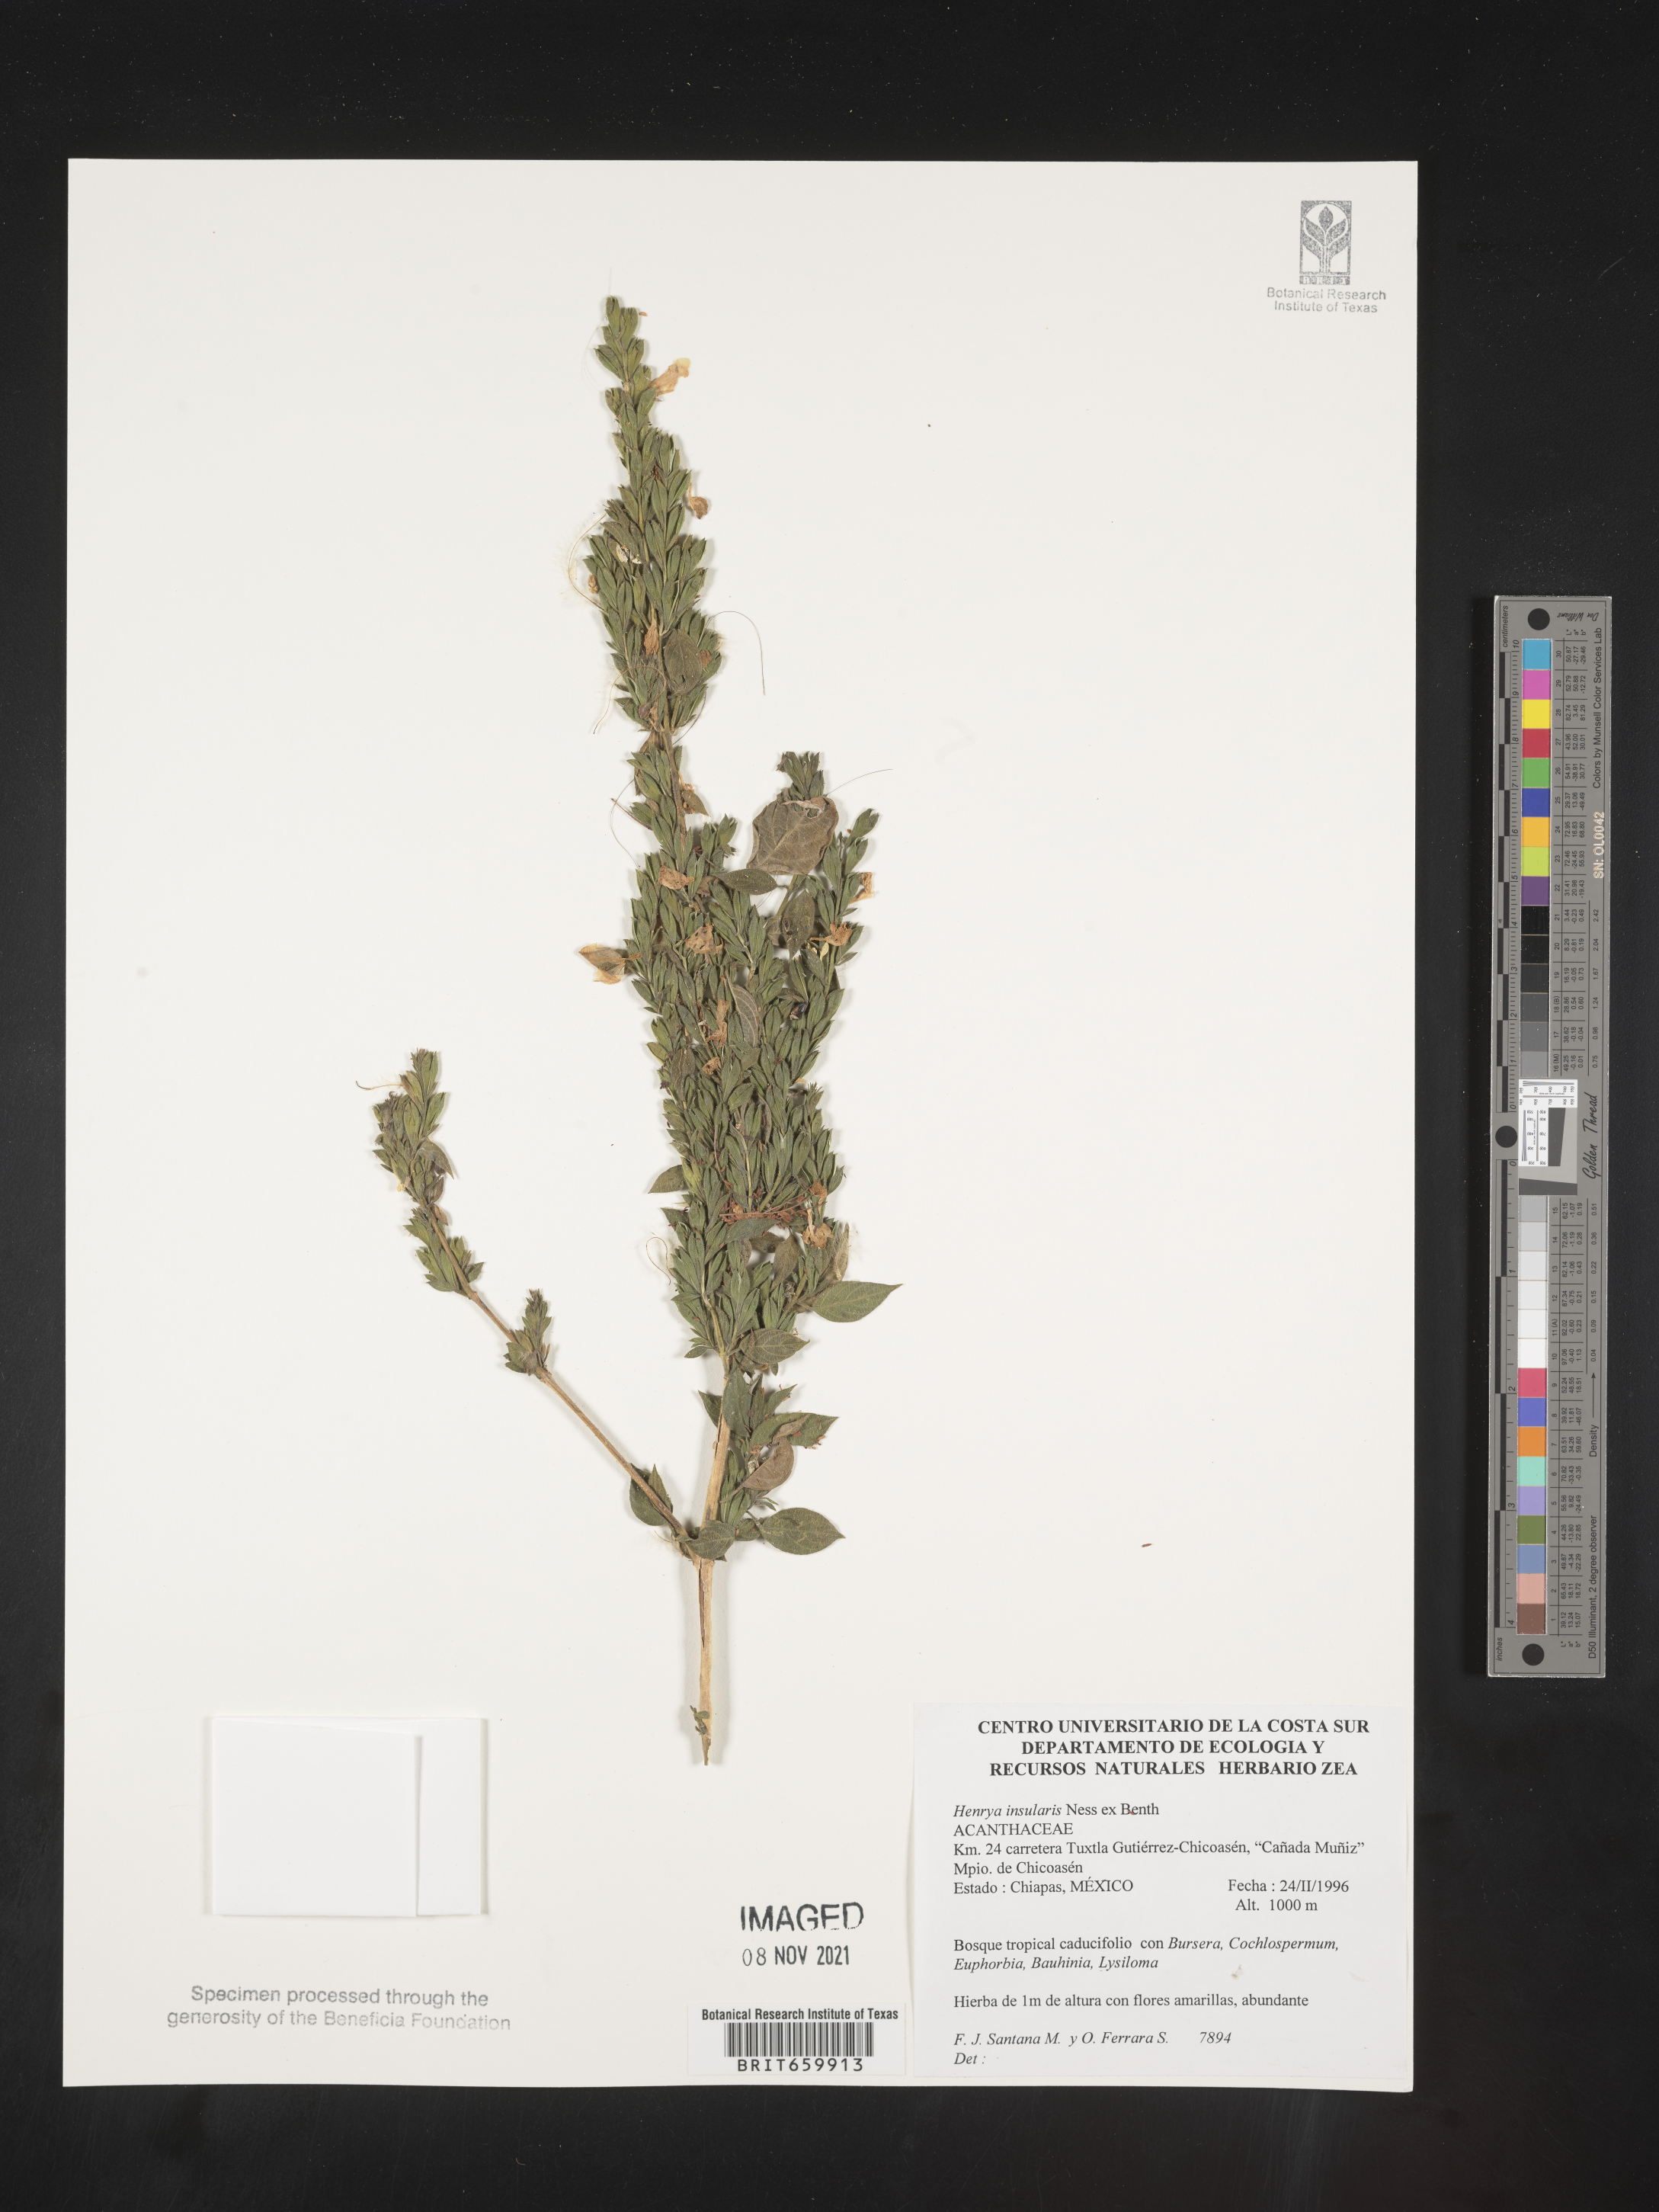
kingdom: Plantae
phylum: Tracheophyta
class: Magnoliopsida
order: Lamiales
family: Acanthaceae
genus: Henrya
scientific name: Henrya
